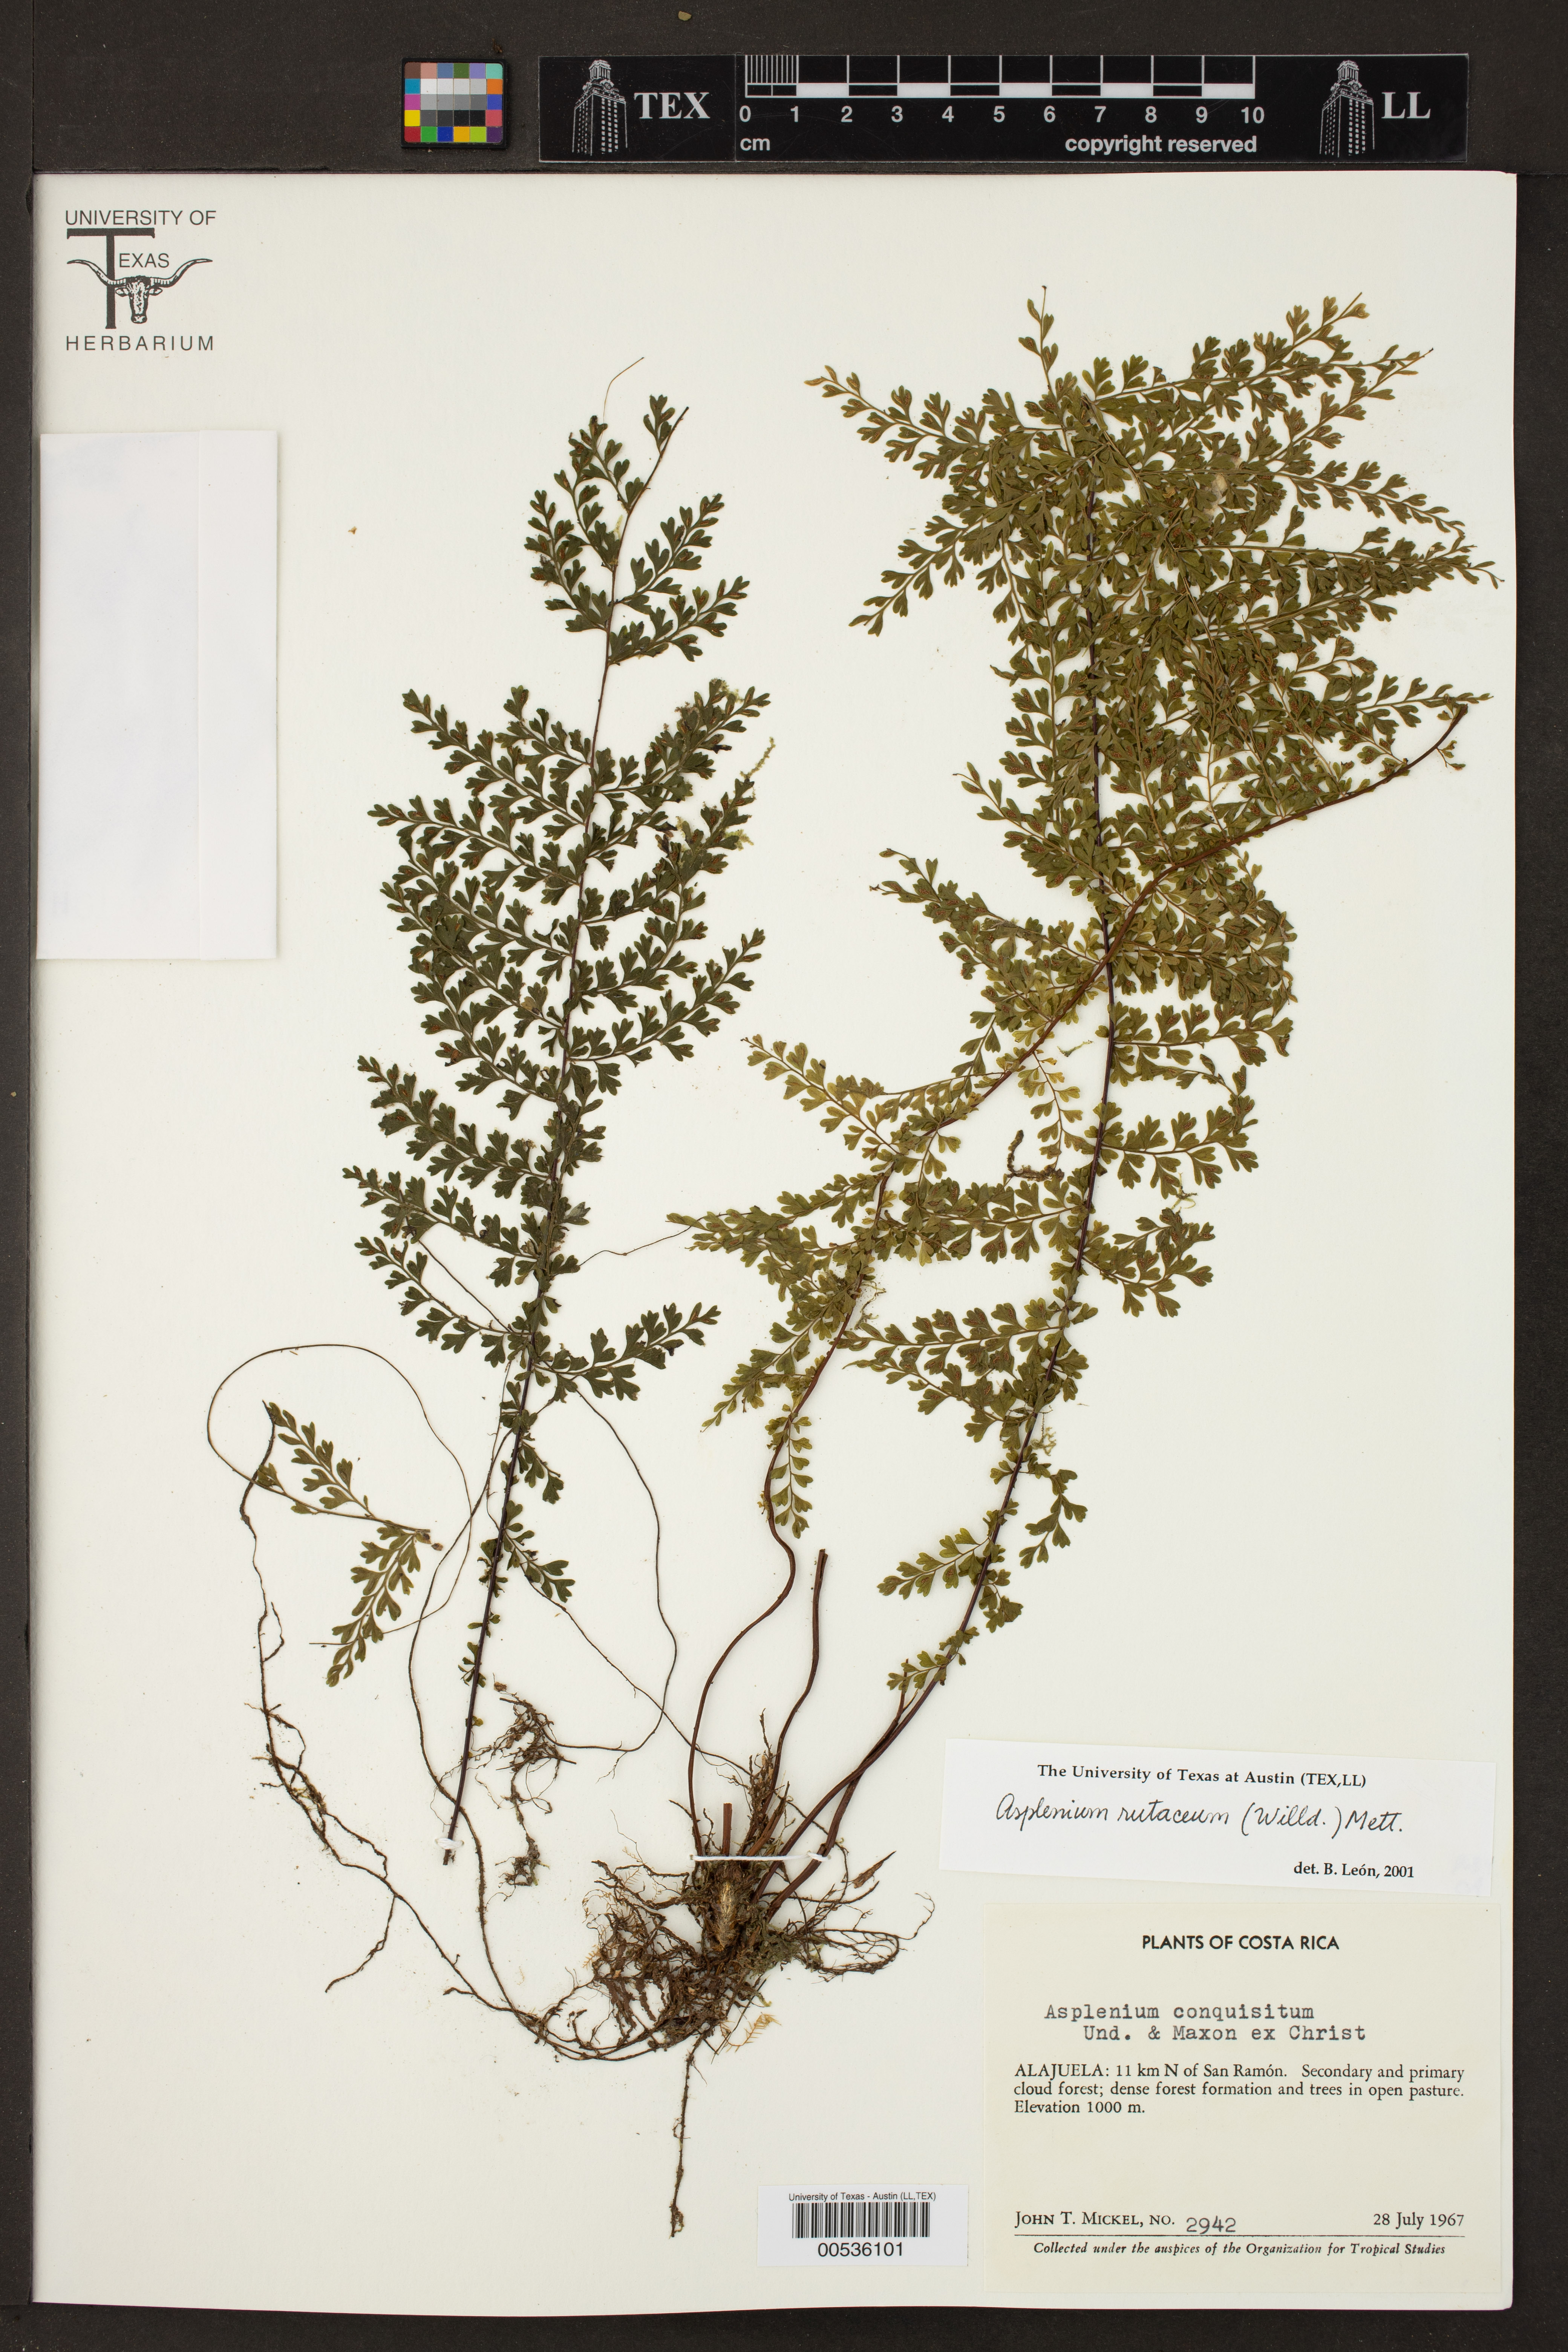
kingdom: Plantae
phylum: Tracheophyta
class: Polypodiopsida
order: Polypodiales
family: Aspleniaceae
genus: Asplenium
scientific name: Asplenium rutaceum
